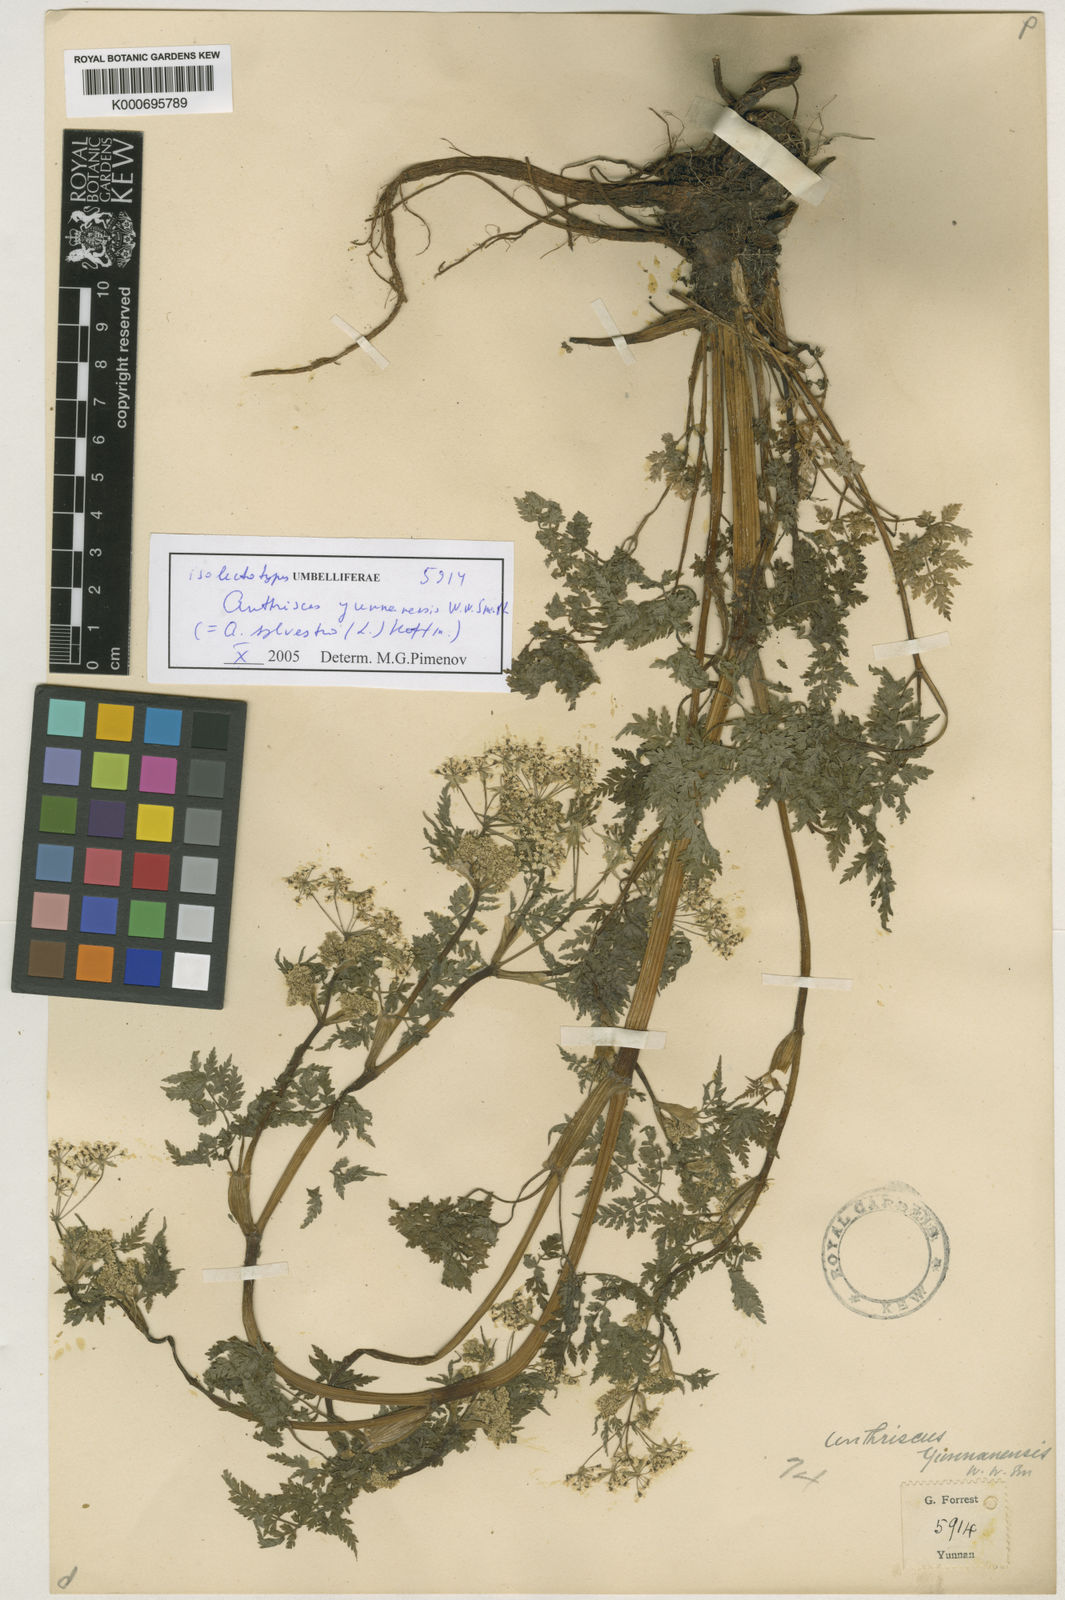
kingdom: Plantae
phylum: Tracheophyta
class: Magnoliopsida
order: Apiales
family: Apiaceae
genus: Anthriscus
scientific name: Anthriscus sylvestris
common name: Cow parsley
